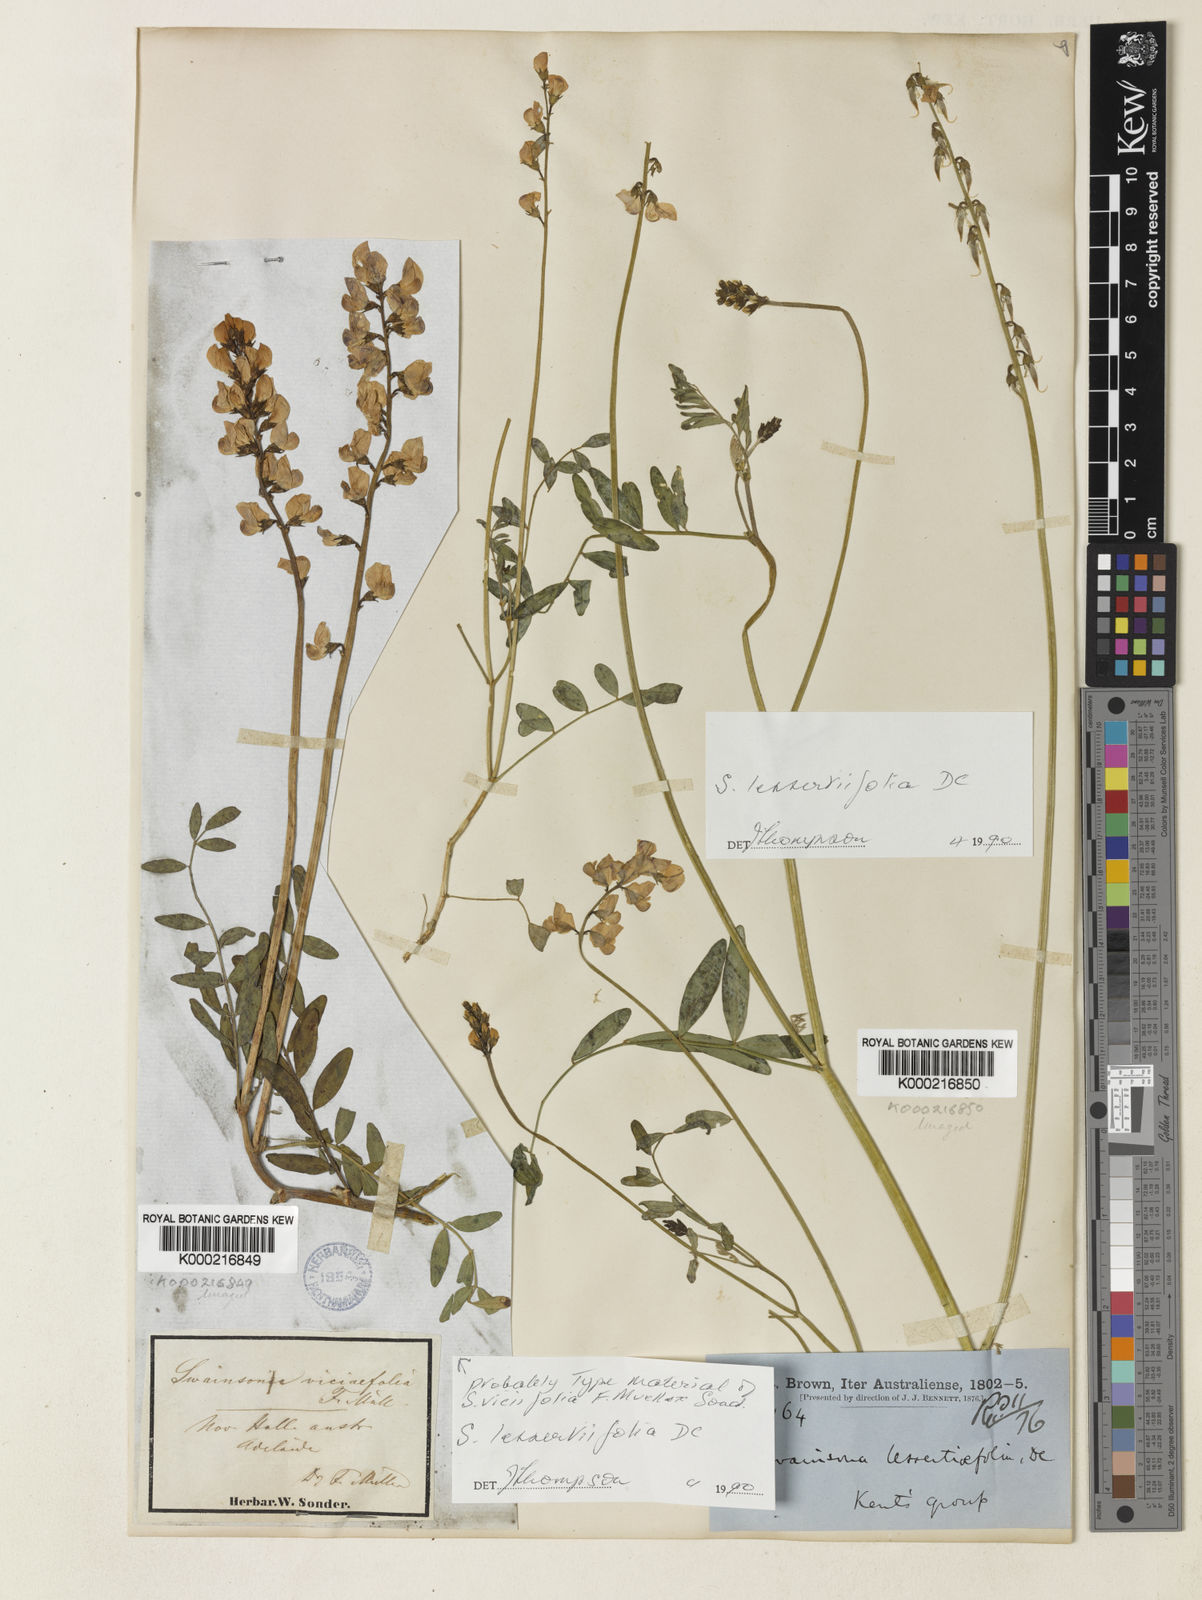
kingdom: Plantae
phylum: Tracheophyta
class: Magnoliopsida
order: Fabales
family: Fabaceae
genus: Swainsona
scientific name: Swainsona lessertiifolia
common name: Bog-pea
